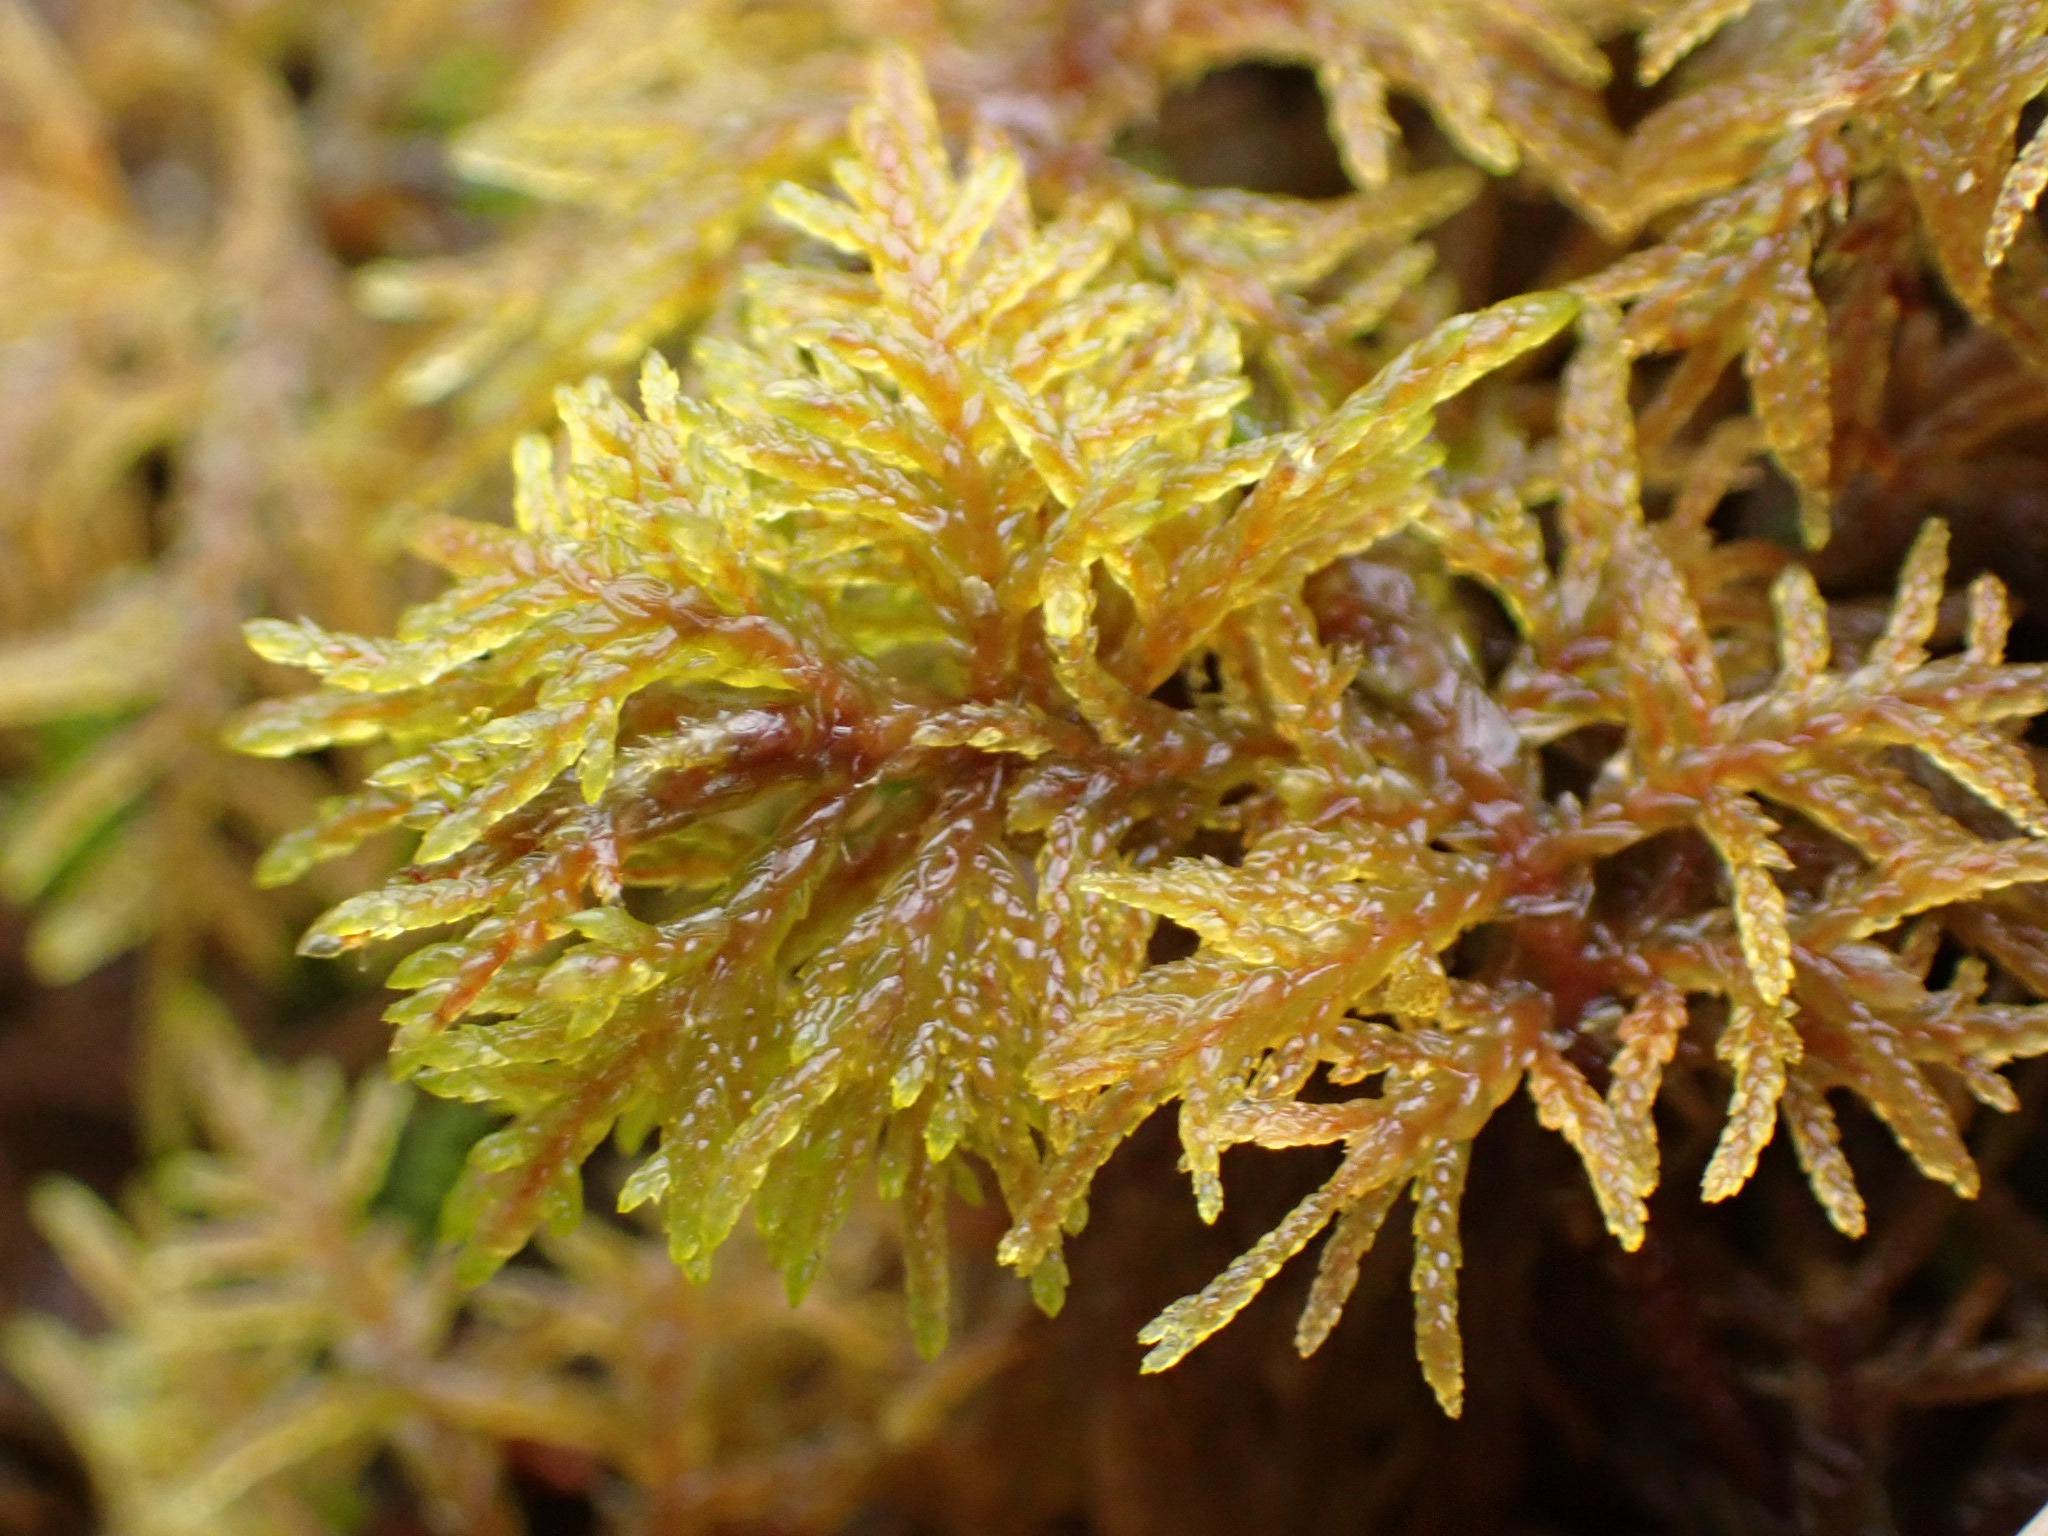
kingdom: Plantae
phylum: Bryophyta
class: Bryopsida
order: Hypnales
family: Hylocomiaceae
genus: Hylocomium
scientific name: Hylocomium splendens
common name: Almindelig etagemos
